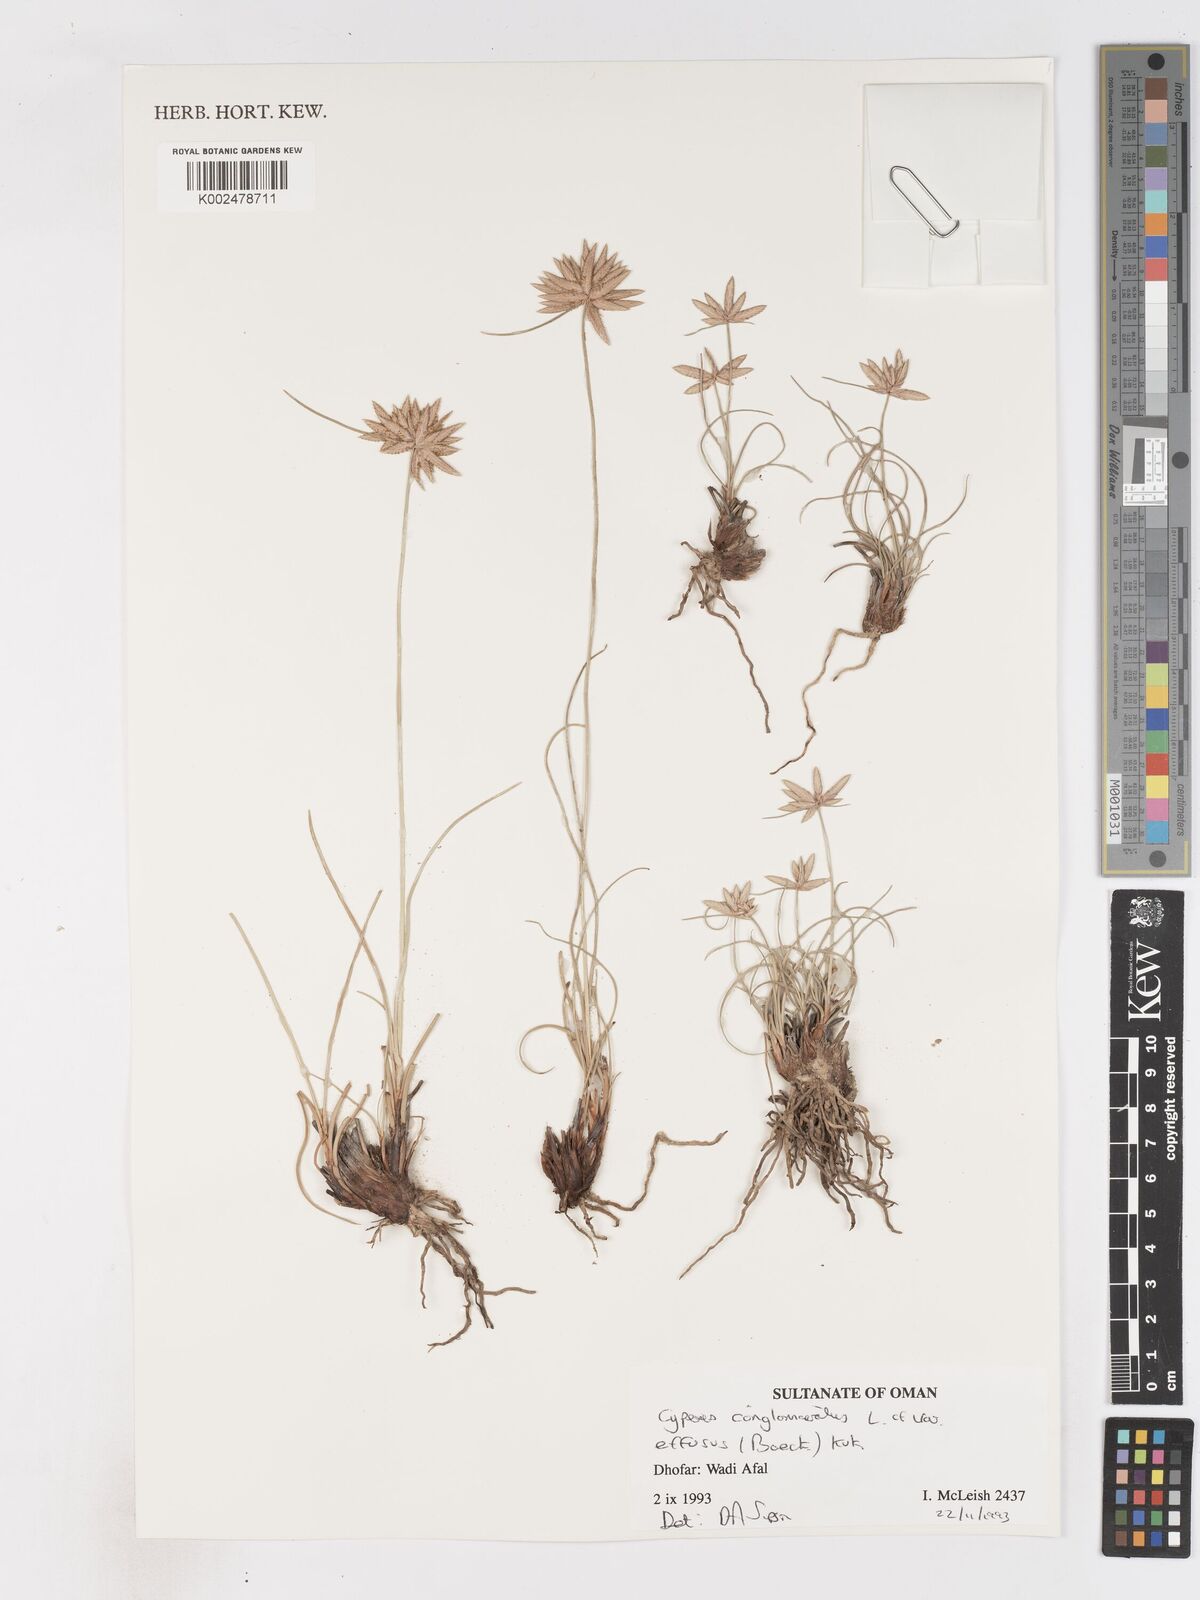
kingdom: Plantae
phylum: Tracheophyta
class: Liliopsida
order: Poales
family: Cyperaceae
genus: Cyperus
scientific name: Cyperus conglomeratus
